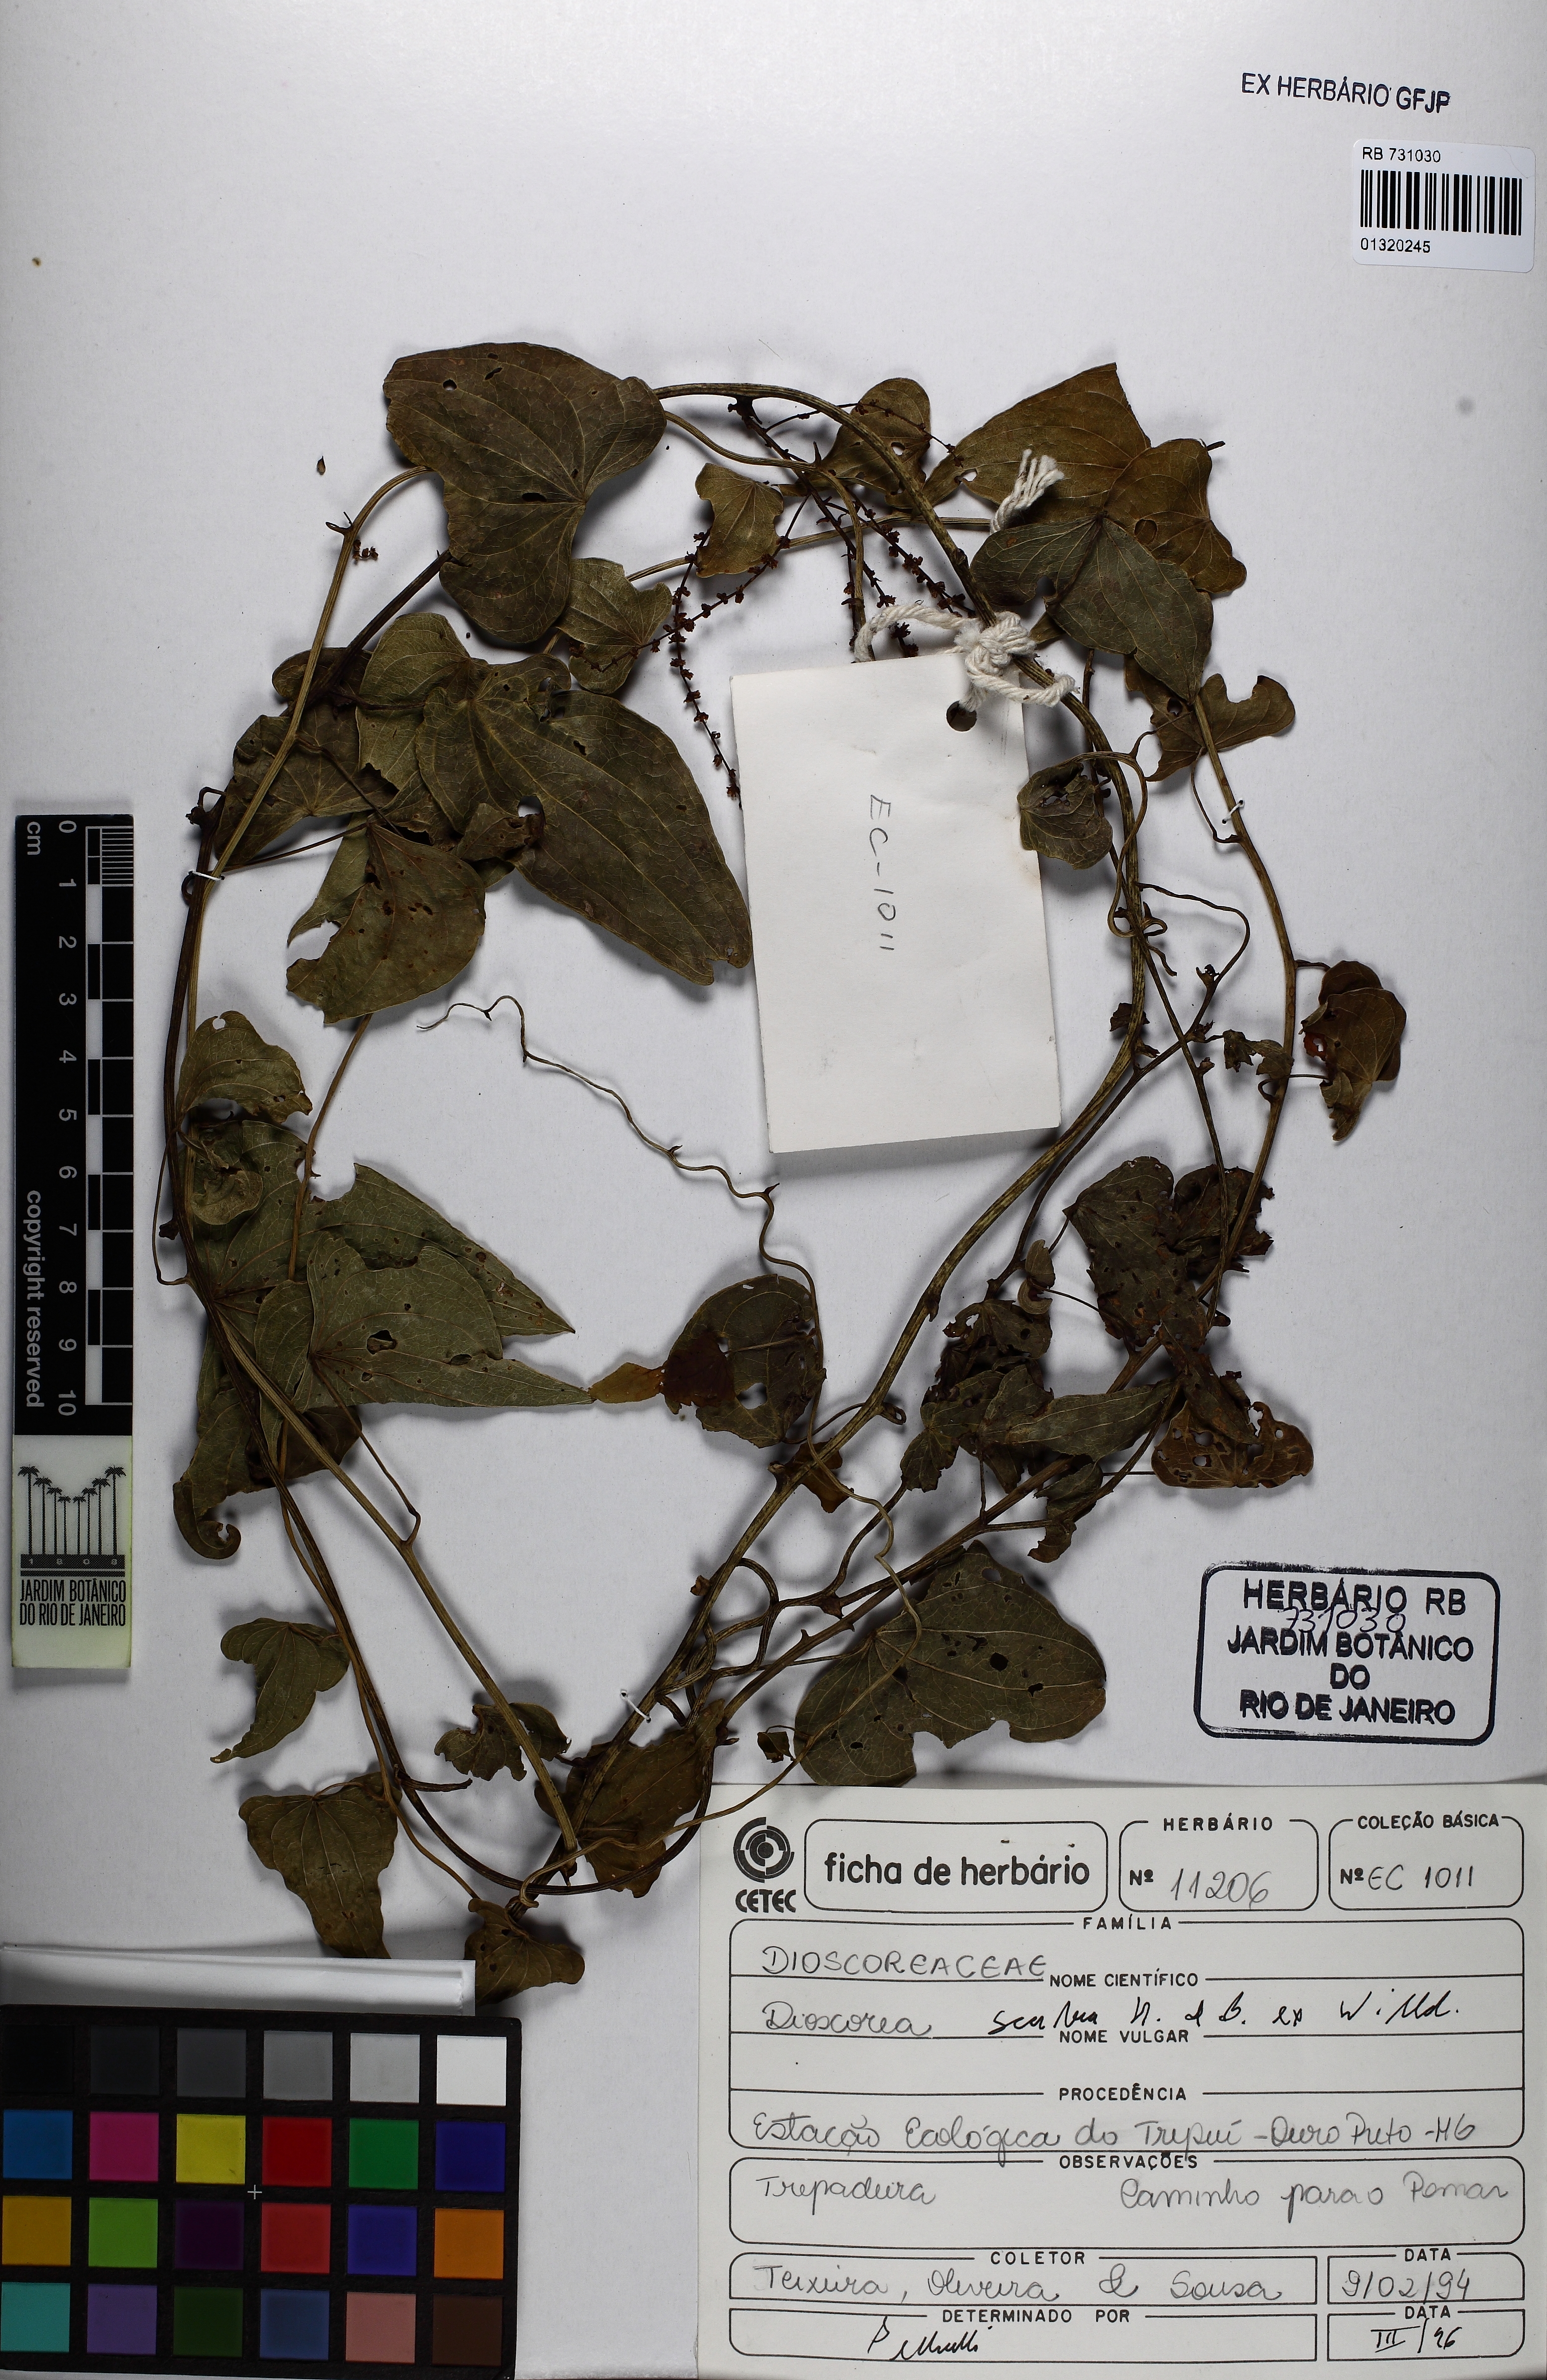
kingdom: Plantae
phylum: Tracheophyta
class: Liliopsida
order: Dioscoreales
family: Dioscoreaceae
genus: Dioscorea
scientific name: Dioscorea scabra
